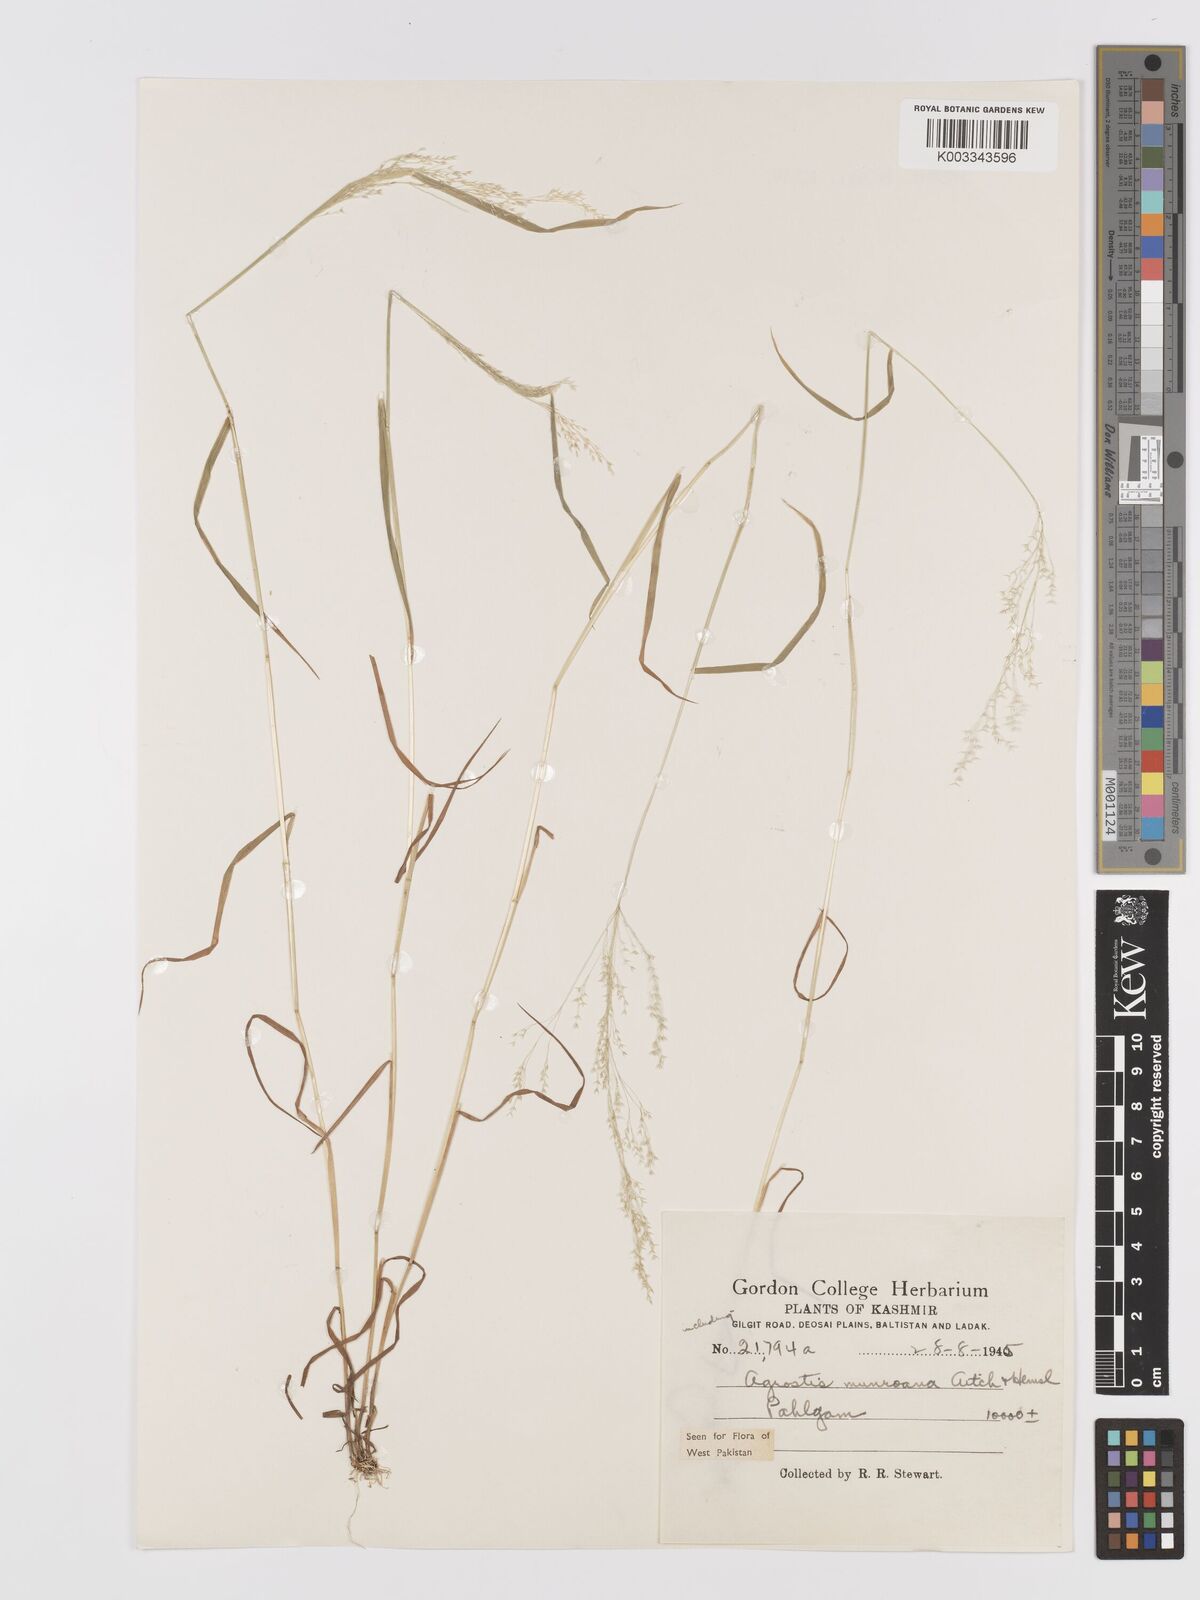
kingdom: Plantae
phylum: Tracheophyta
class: Liliopsida
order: Poales
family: Poaceae
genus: Agrostis
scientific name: Agrostis munroana
